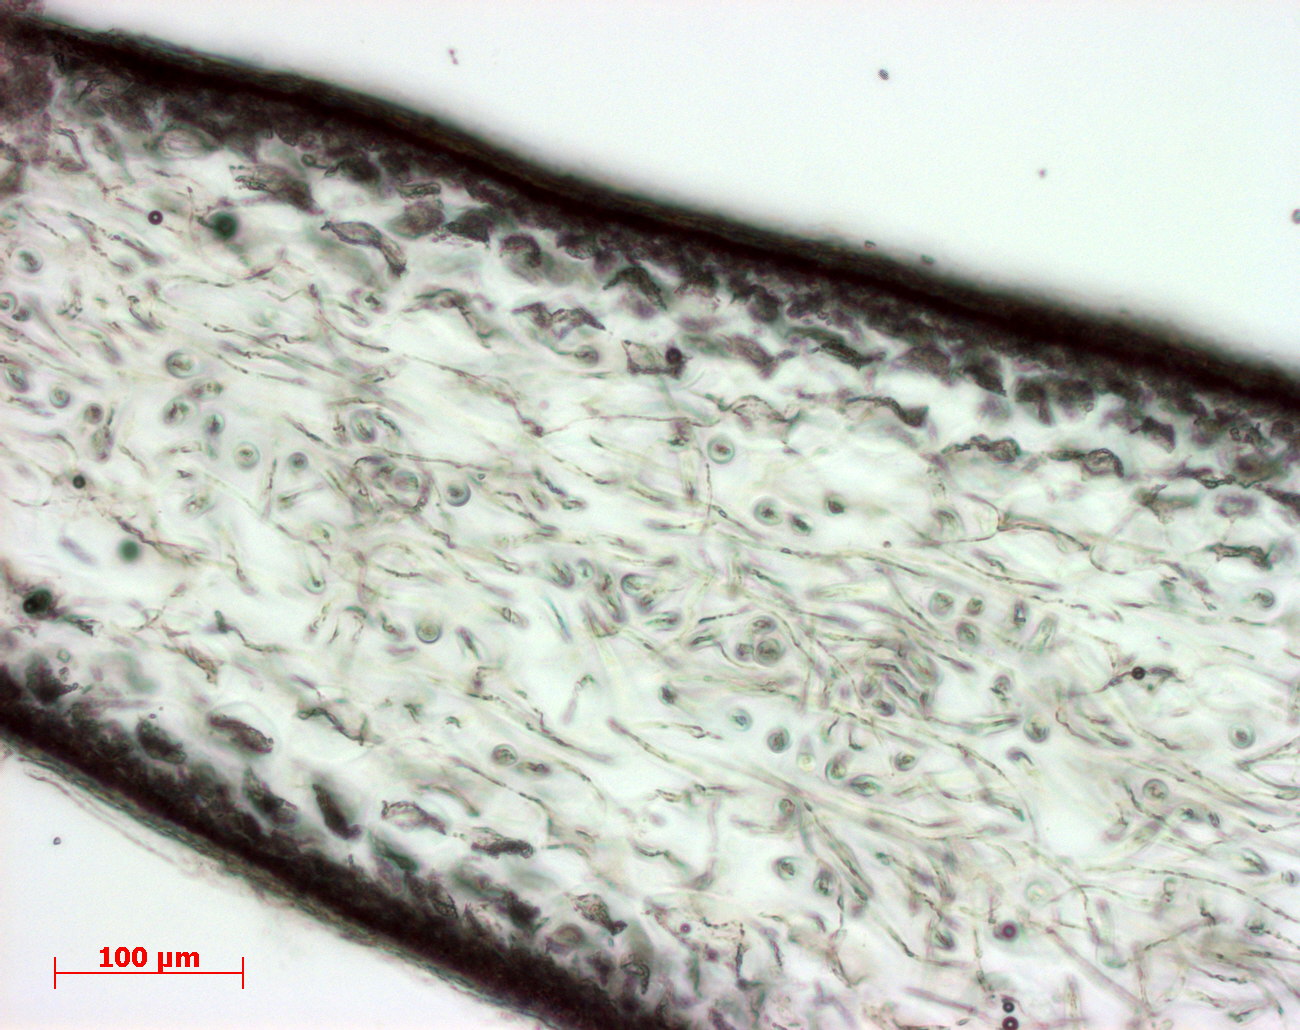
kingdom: Plantae
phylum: Rhodophyta
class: Florideophyceae
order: Gigartinales
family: Kallymeniaceae
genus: Psaromenia
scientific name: Psaromenia berggrenii
